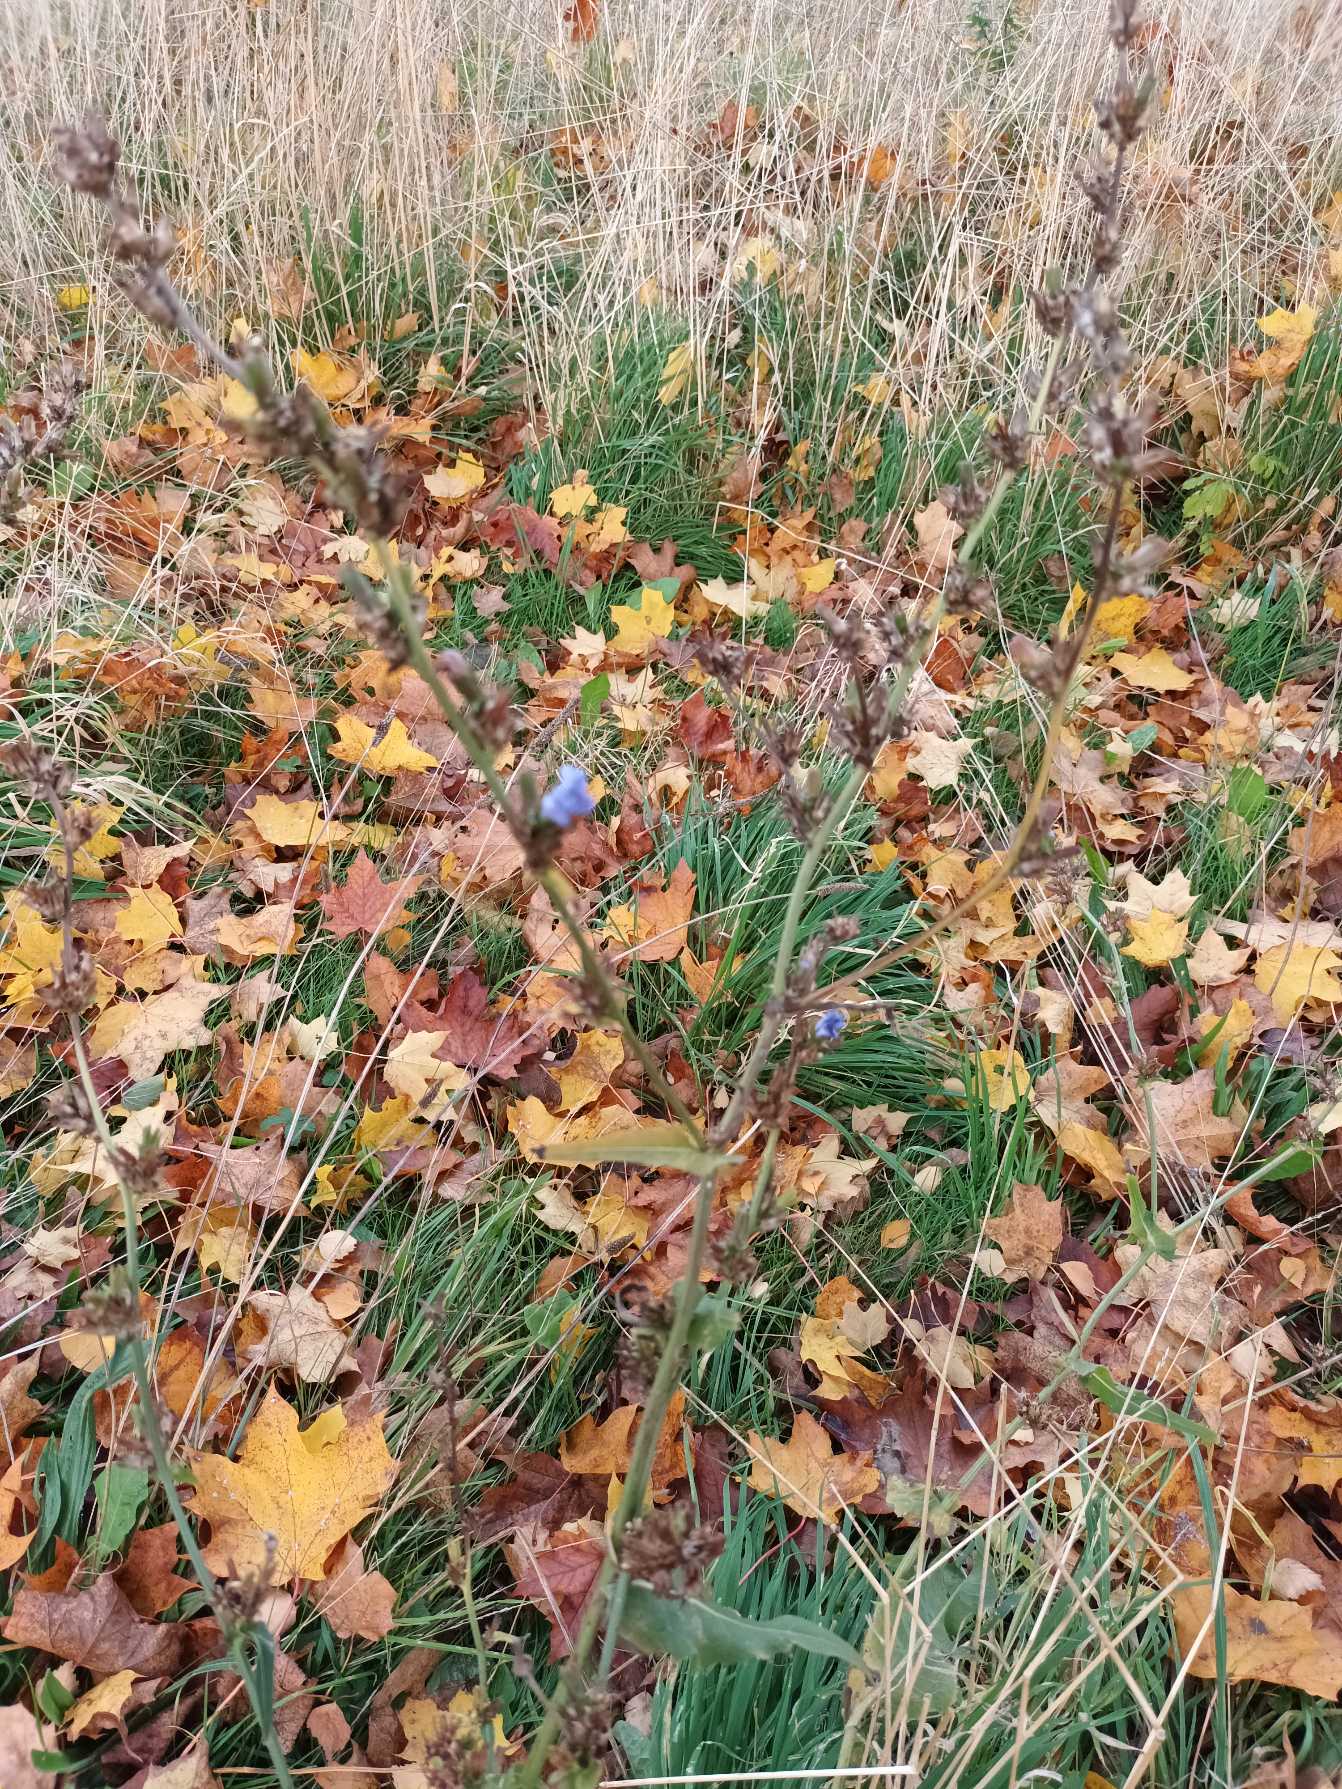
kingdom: Plantae
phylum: Tracheophyta
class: Magnoliopsida
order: Asterales
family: Asteraceae
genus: Cichorium
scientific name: Cichorium intybus
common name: Cikorie
